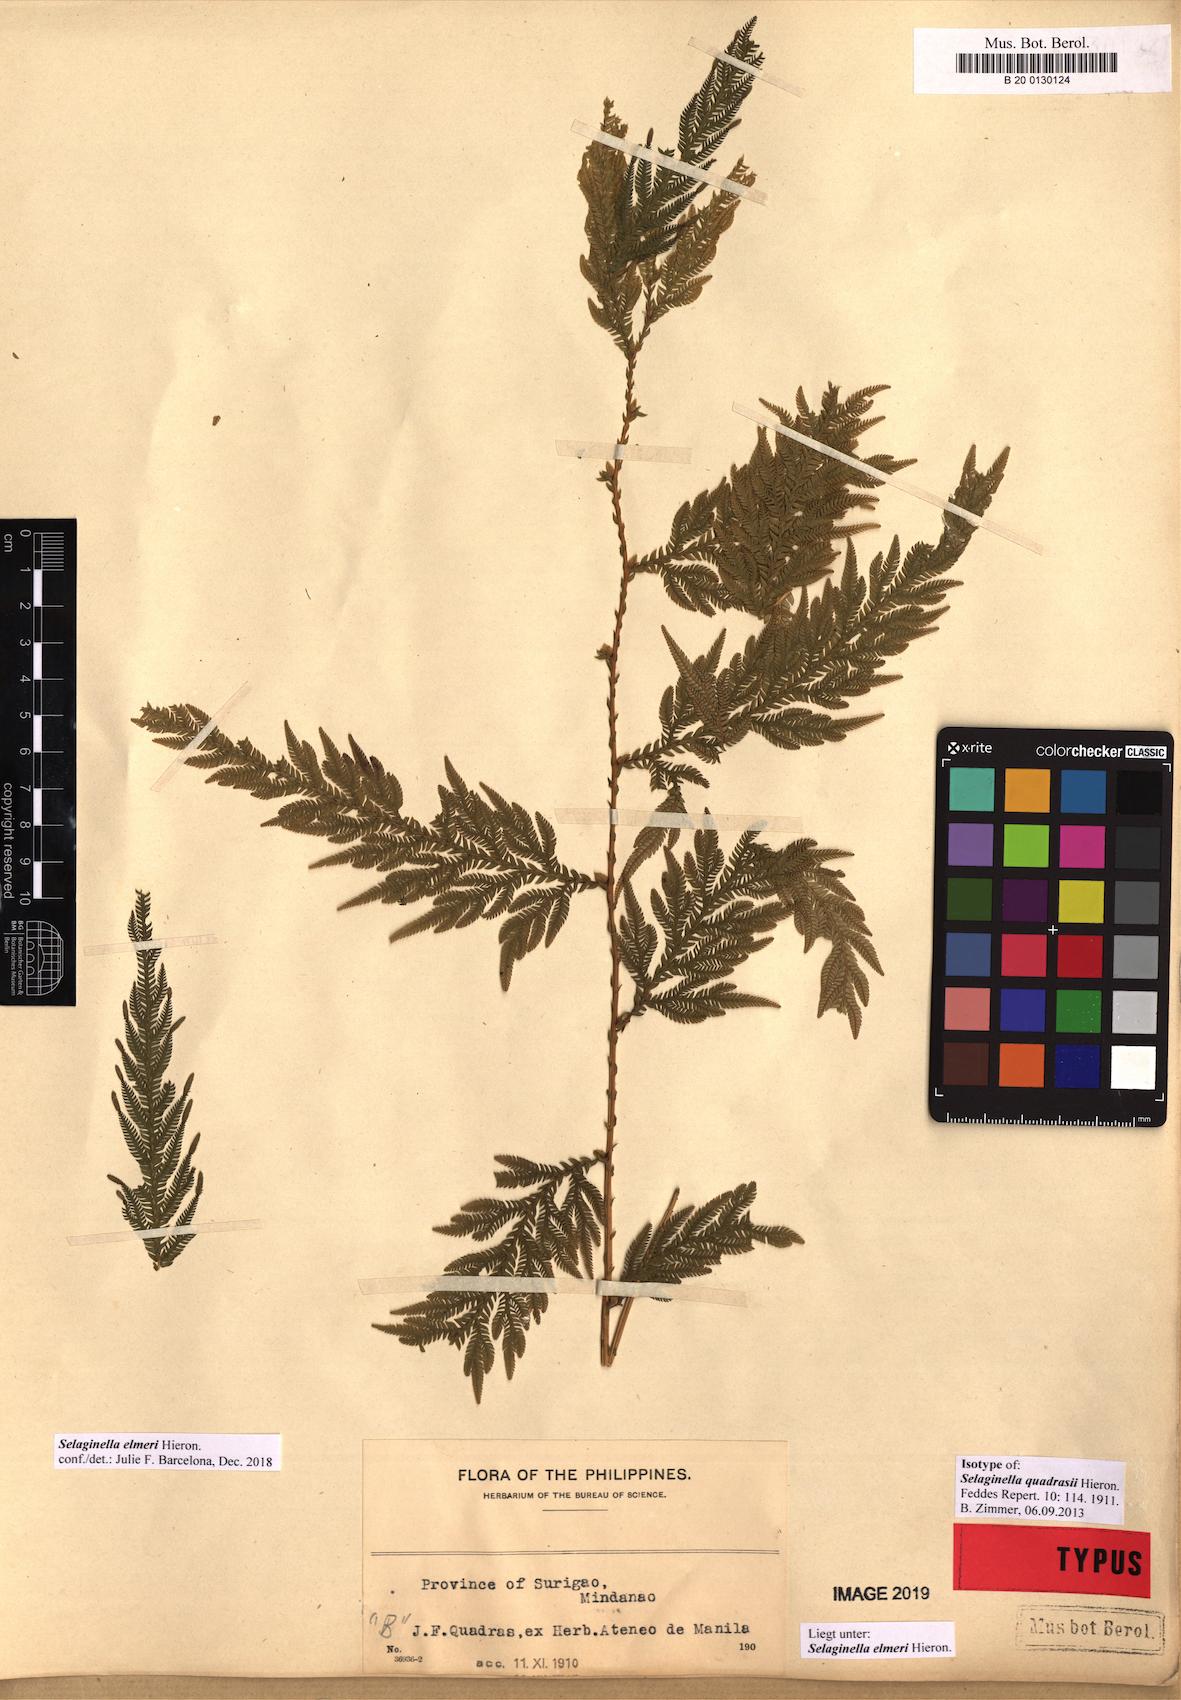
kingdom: Plantae
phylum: Tracheophyta
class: Lycopodiopsida
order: Selaginellales
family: Selaginellaceae
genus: Selaginella
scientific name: Selaginella elmeri
